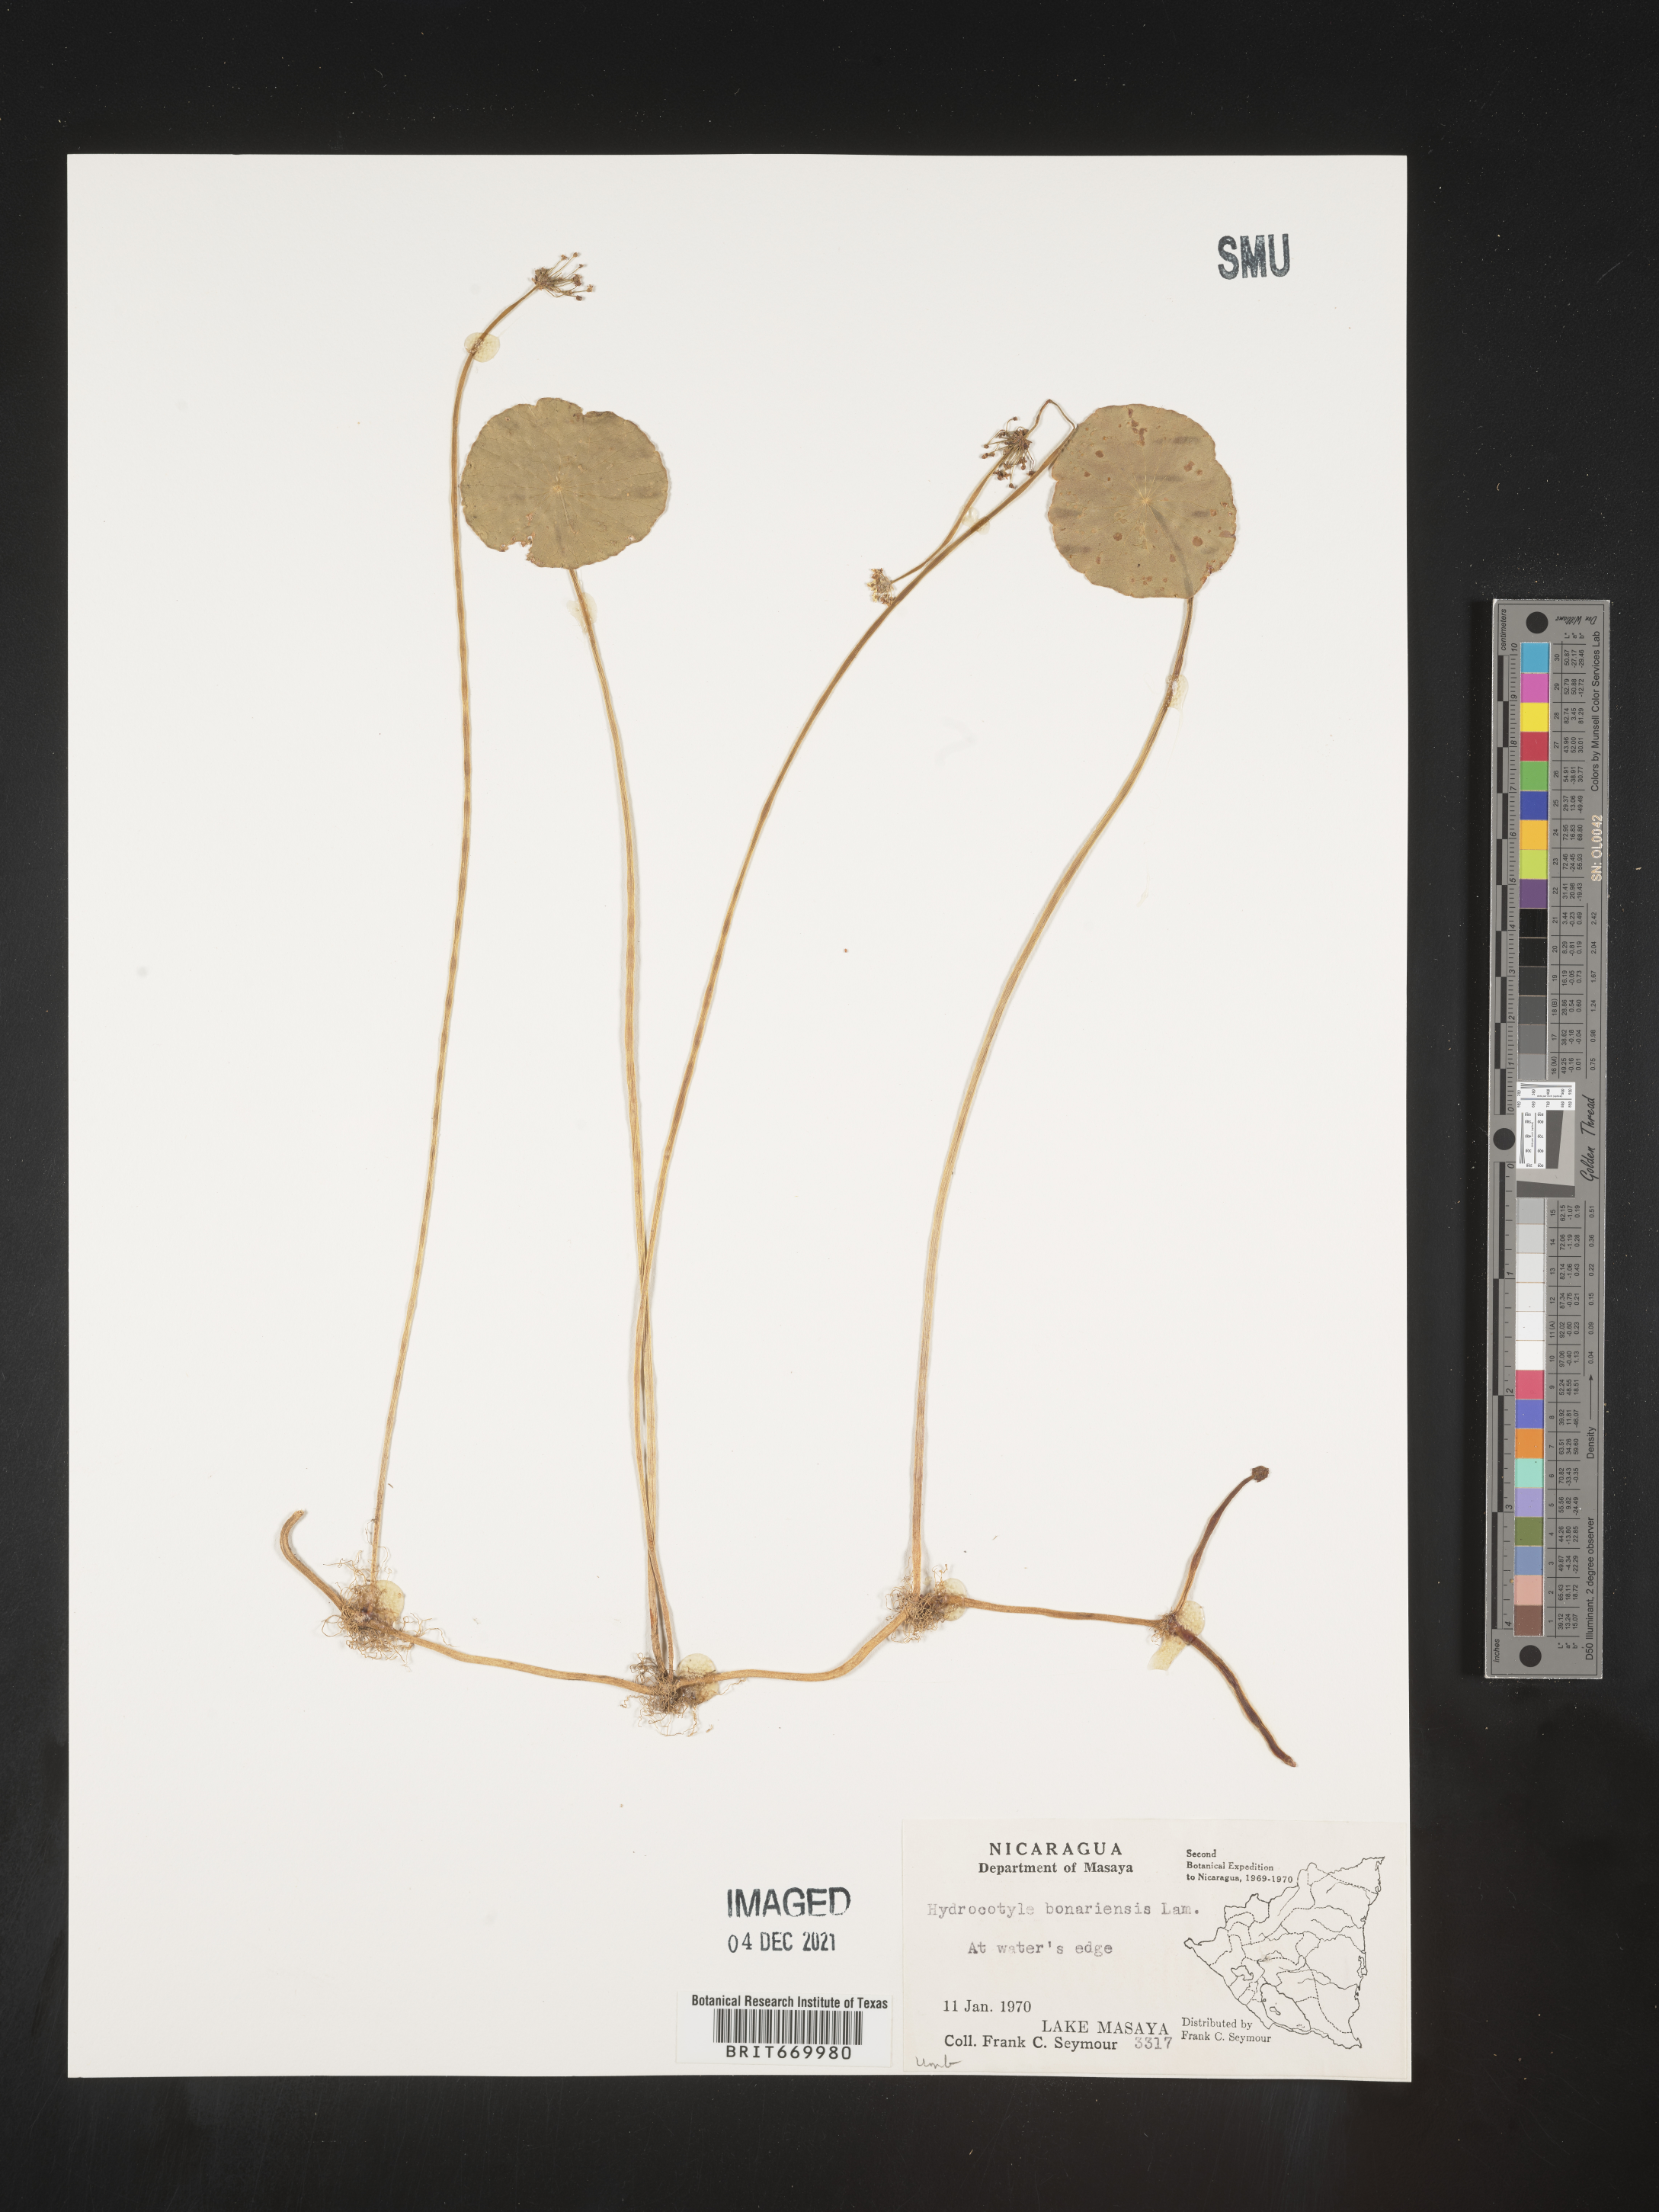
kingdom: Plantae
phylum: Tracheophyta
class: Magnoliopsida
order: Apiales
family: Araliaceae
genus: Hydrocotyle
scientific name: Hydrocotyle
